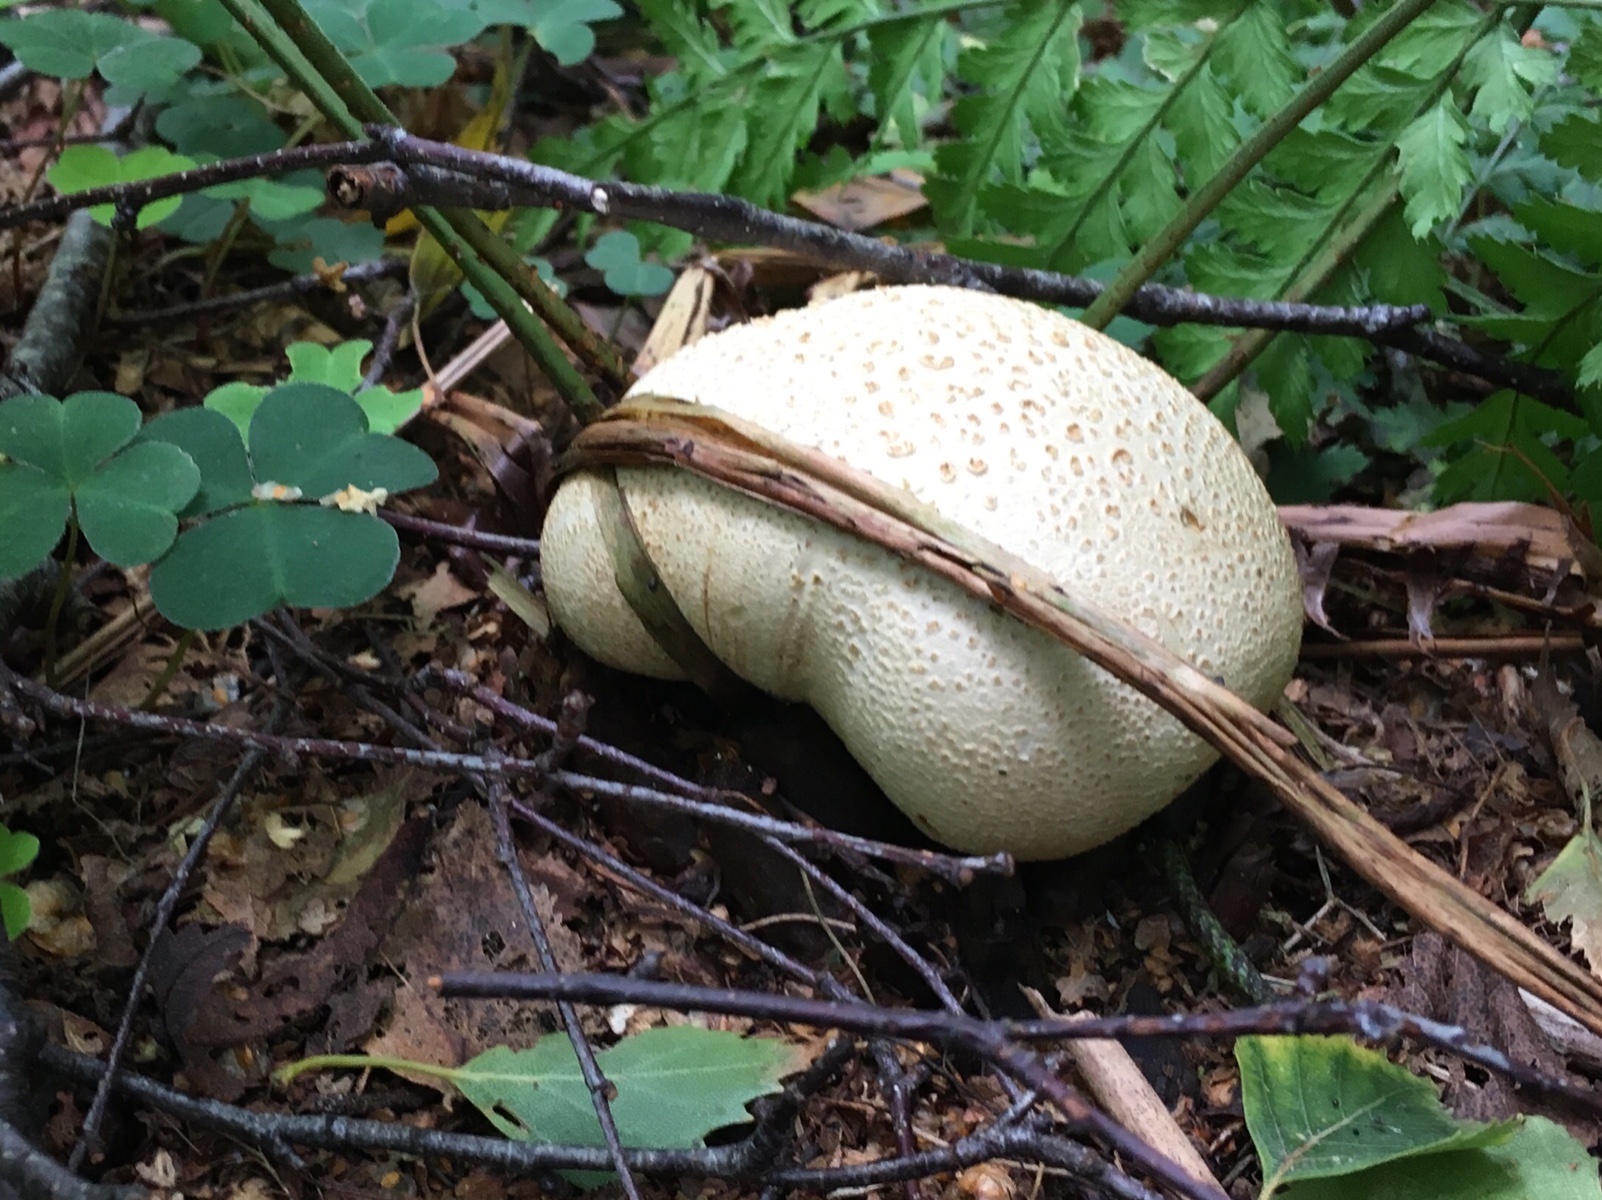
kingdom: Fungi
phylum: Basidiomycota
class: Agaricomycetes
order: Boletales
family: Sclerodermataceae
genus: Scleroderma
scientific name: Scleroderma citrinum
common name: almindelig bruskbold
